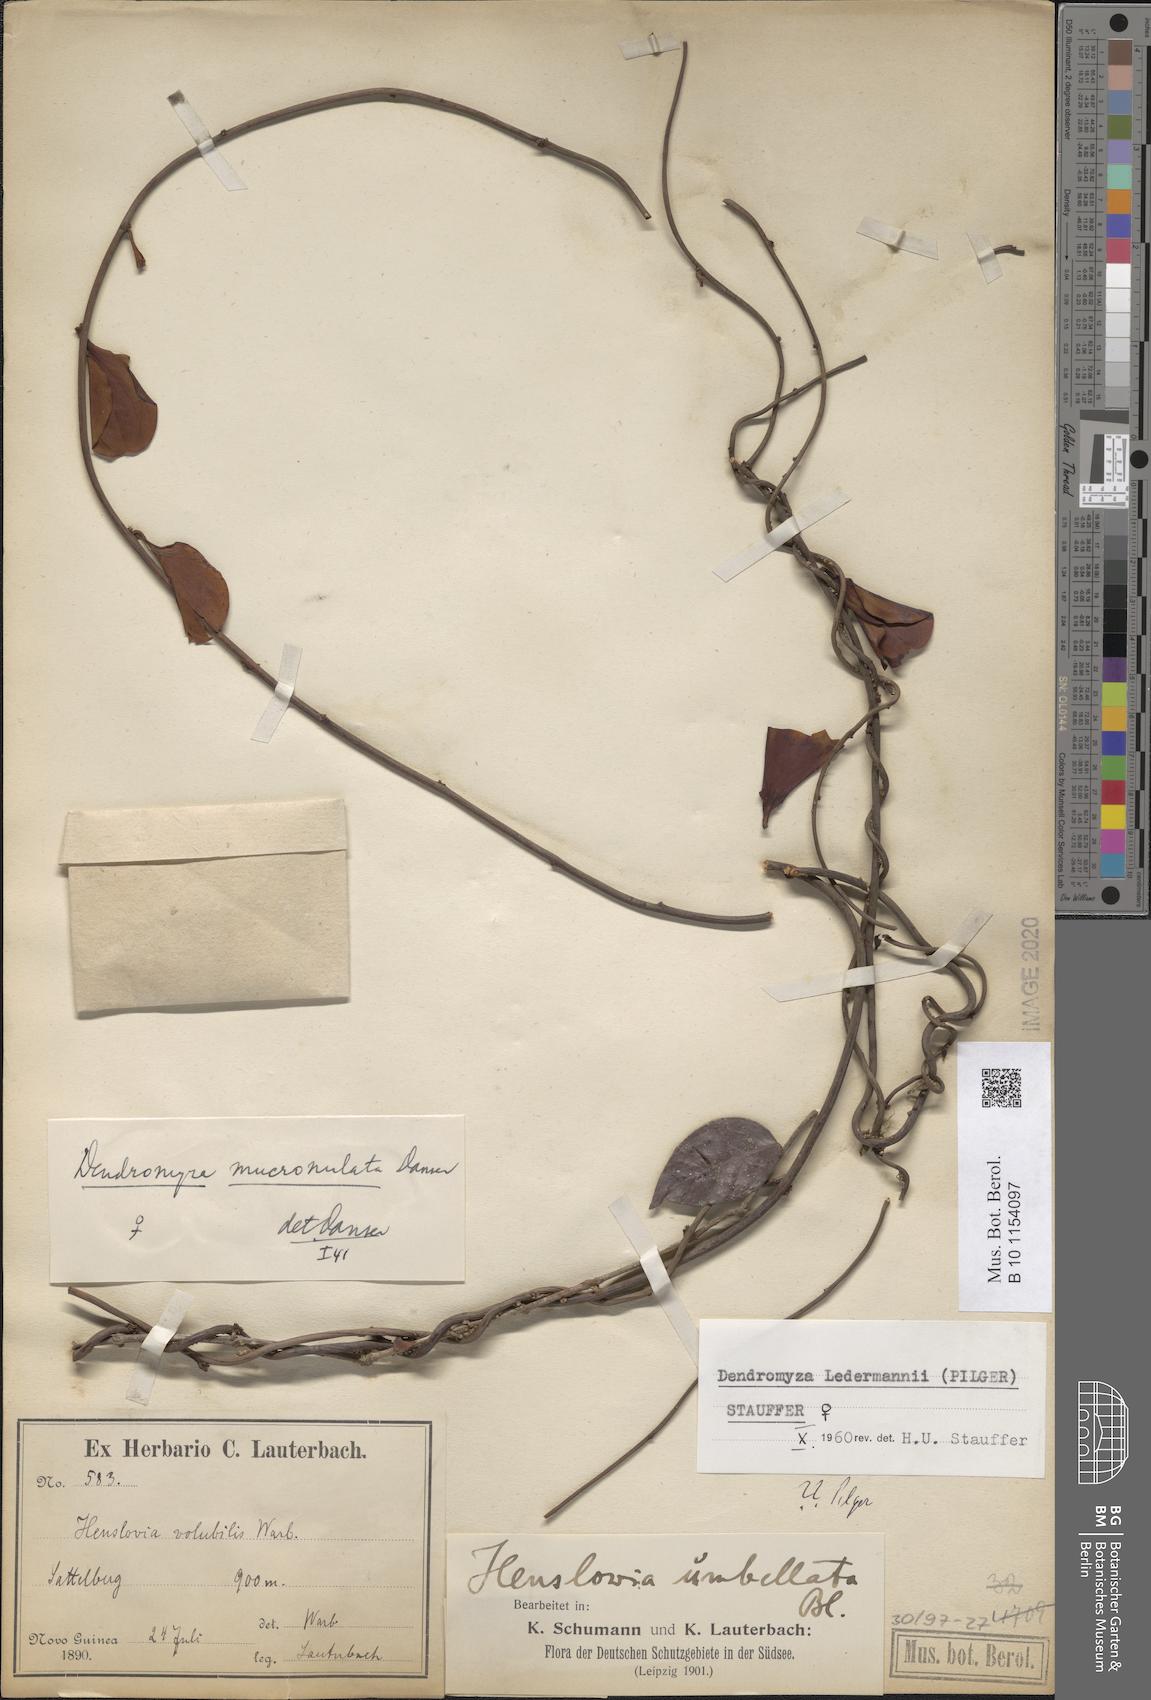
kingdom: Plantae
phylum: Tracheophyta
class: Magnoliopsida
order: Santalales
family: Amphorogynaceae
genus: Dendromyza
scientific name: Dendromyza ledermannii
